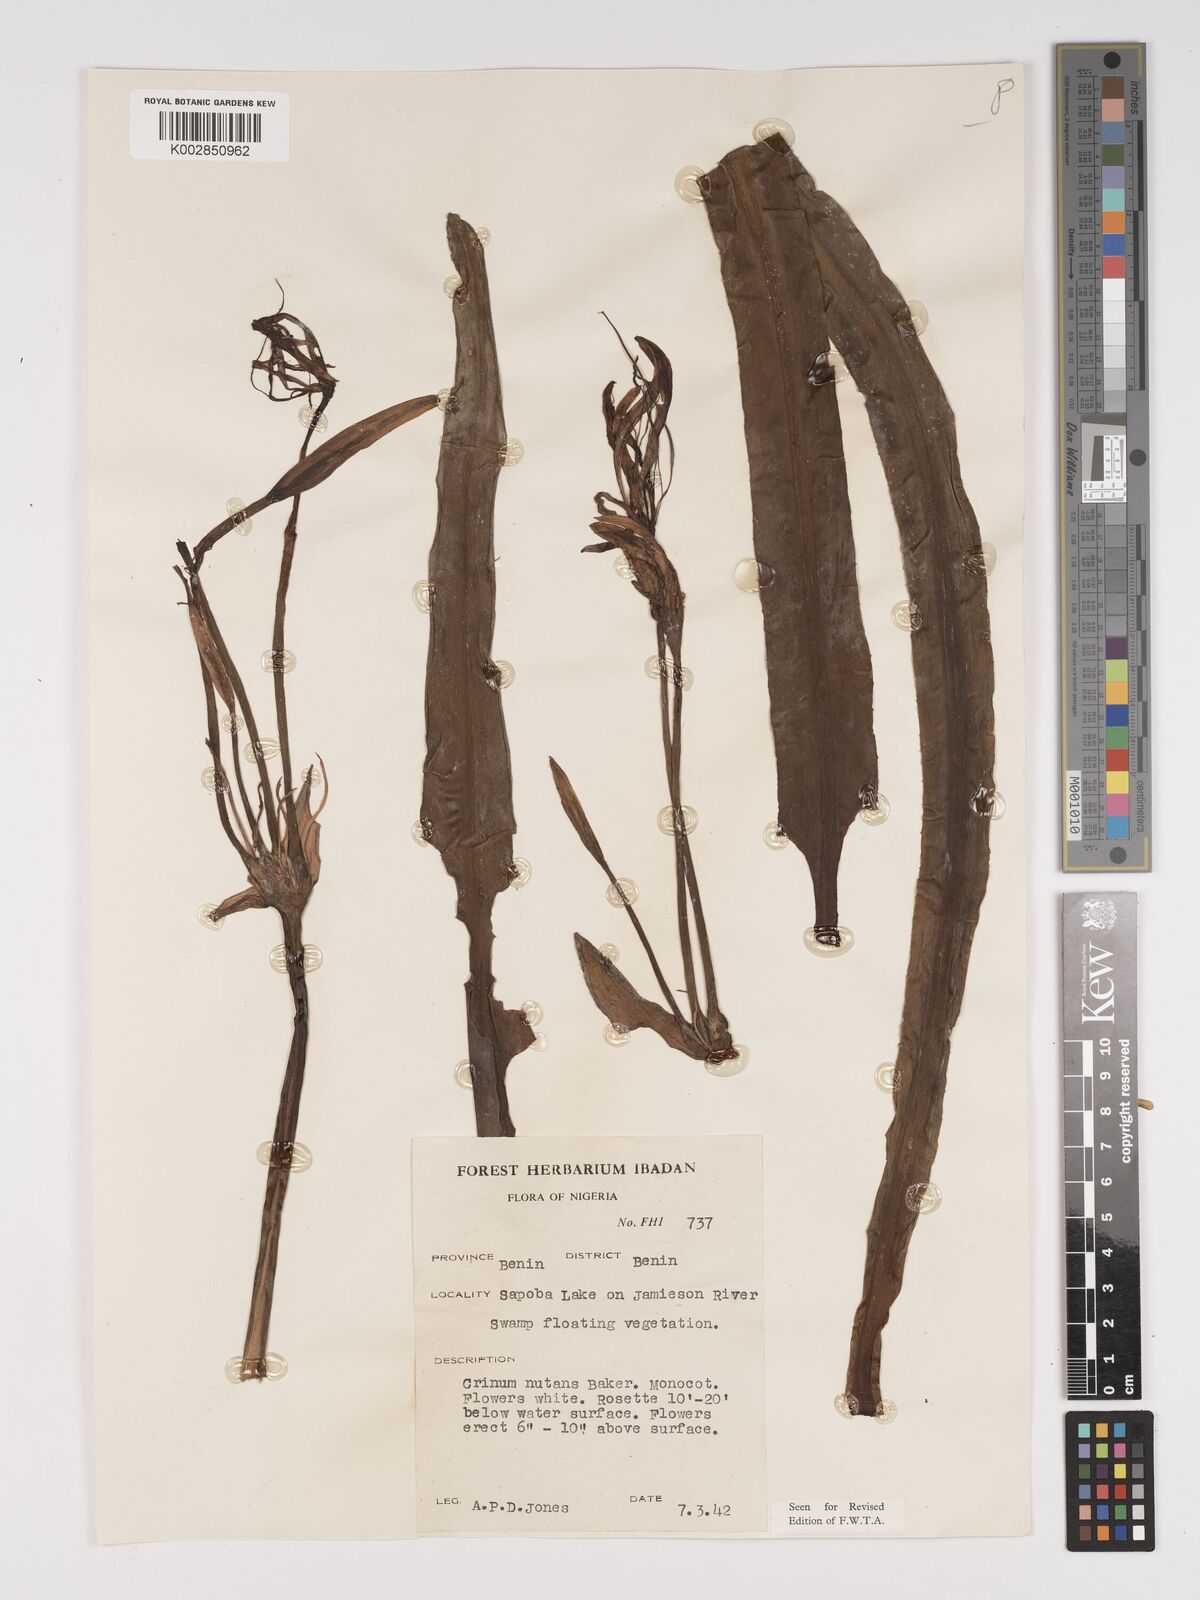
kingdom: Plantae
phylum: Tracheophyta
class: Liliopsida
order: Asparagales
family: Amaryllidaceae
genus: Crinum
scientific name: Crinum natans
